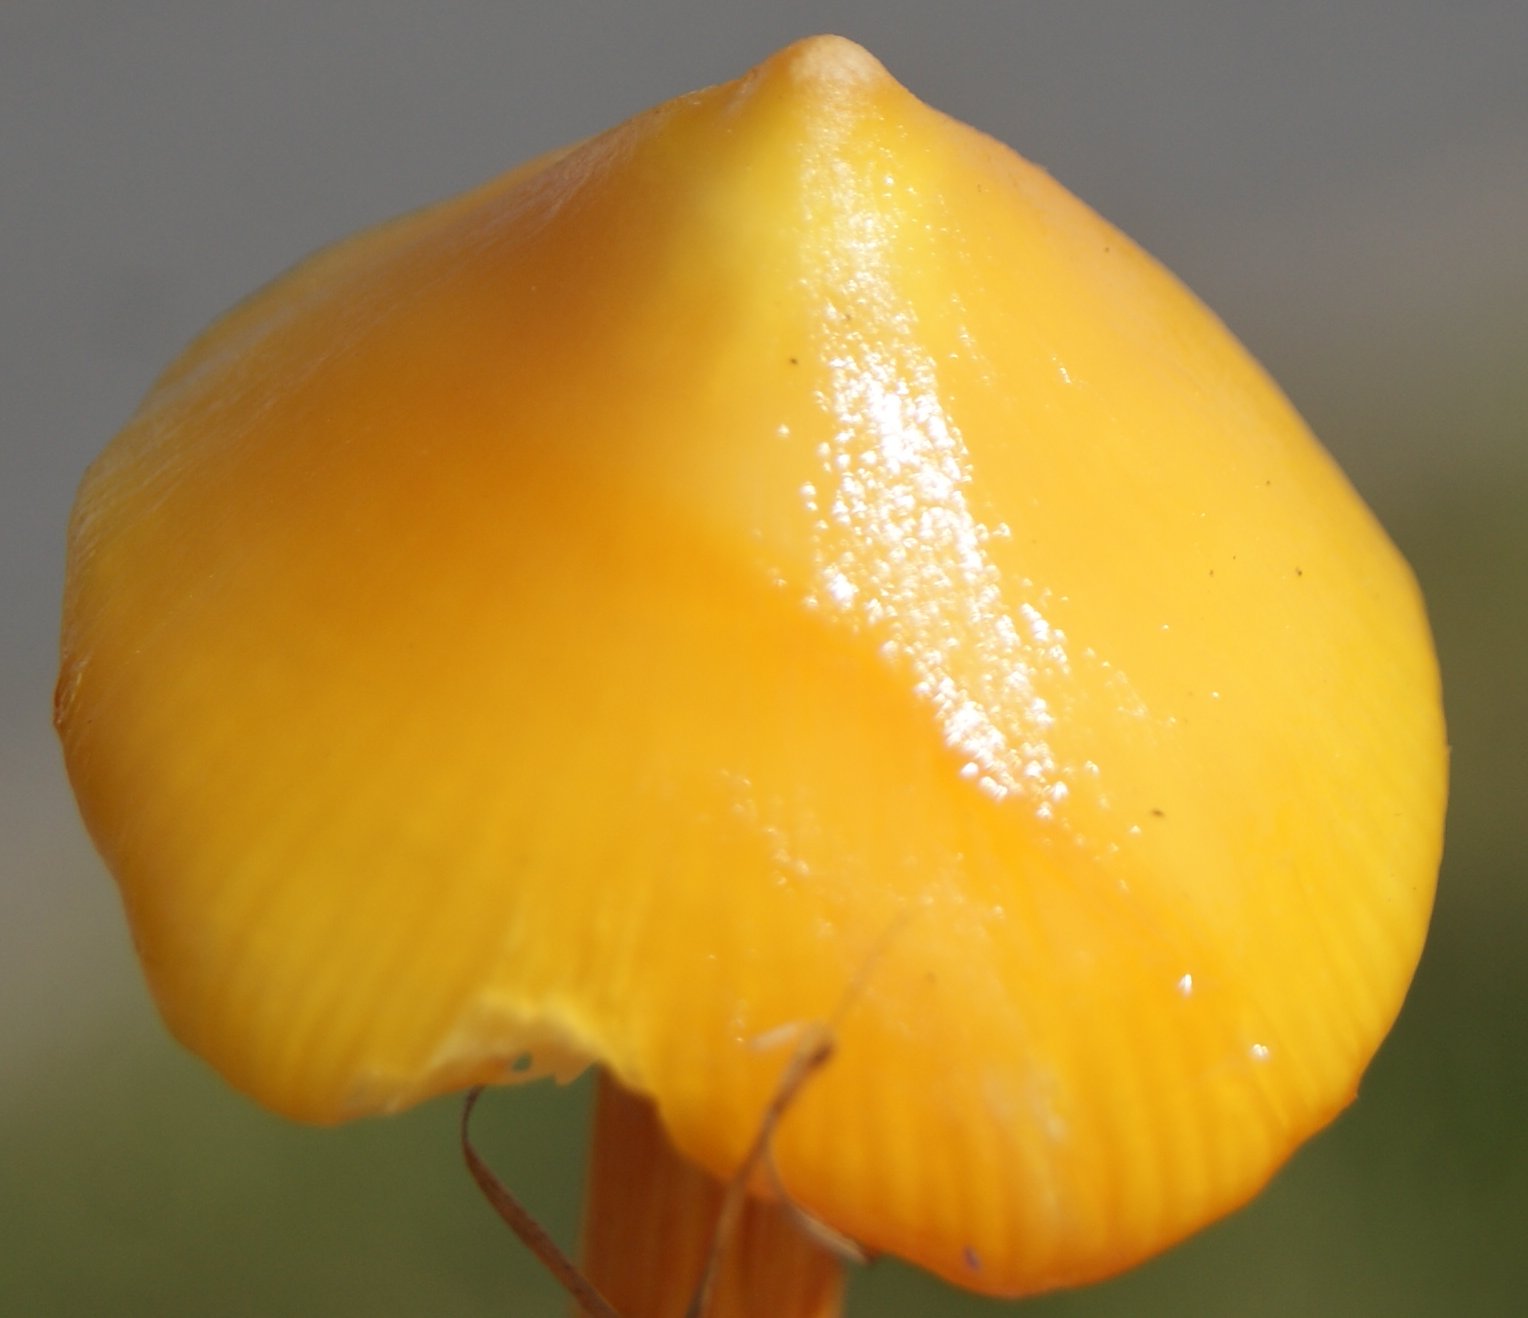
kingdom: Fungi
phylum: Basidiomycota
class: Agaricomycetes
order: Agaricales
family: Hygrophoraceae
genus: Hygrocybe
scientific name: Hygrocybe acutoconica
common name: Konrads vokshat
